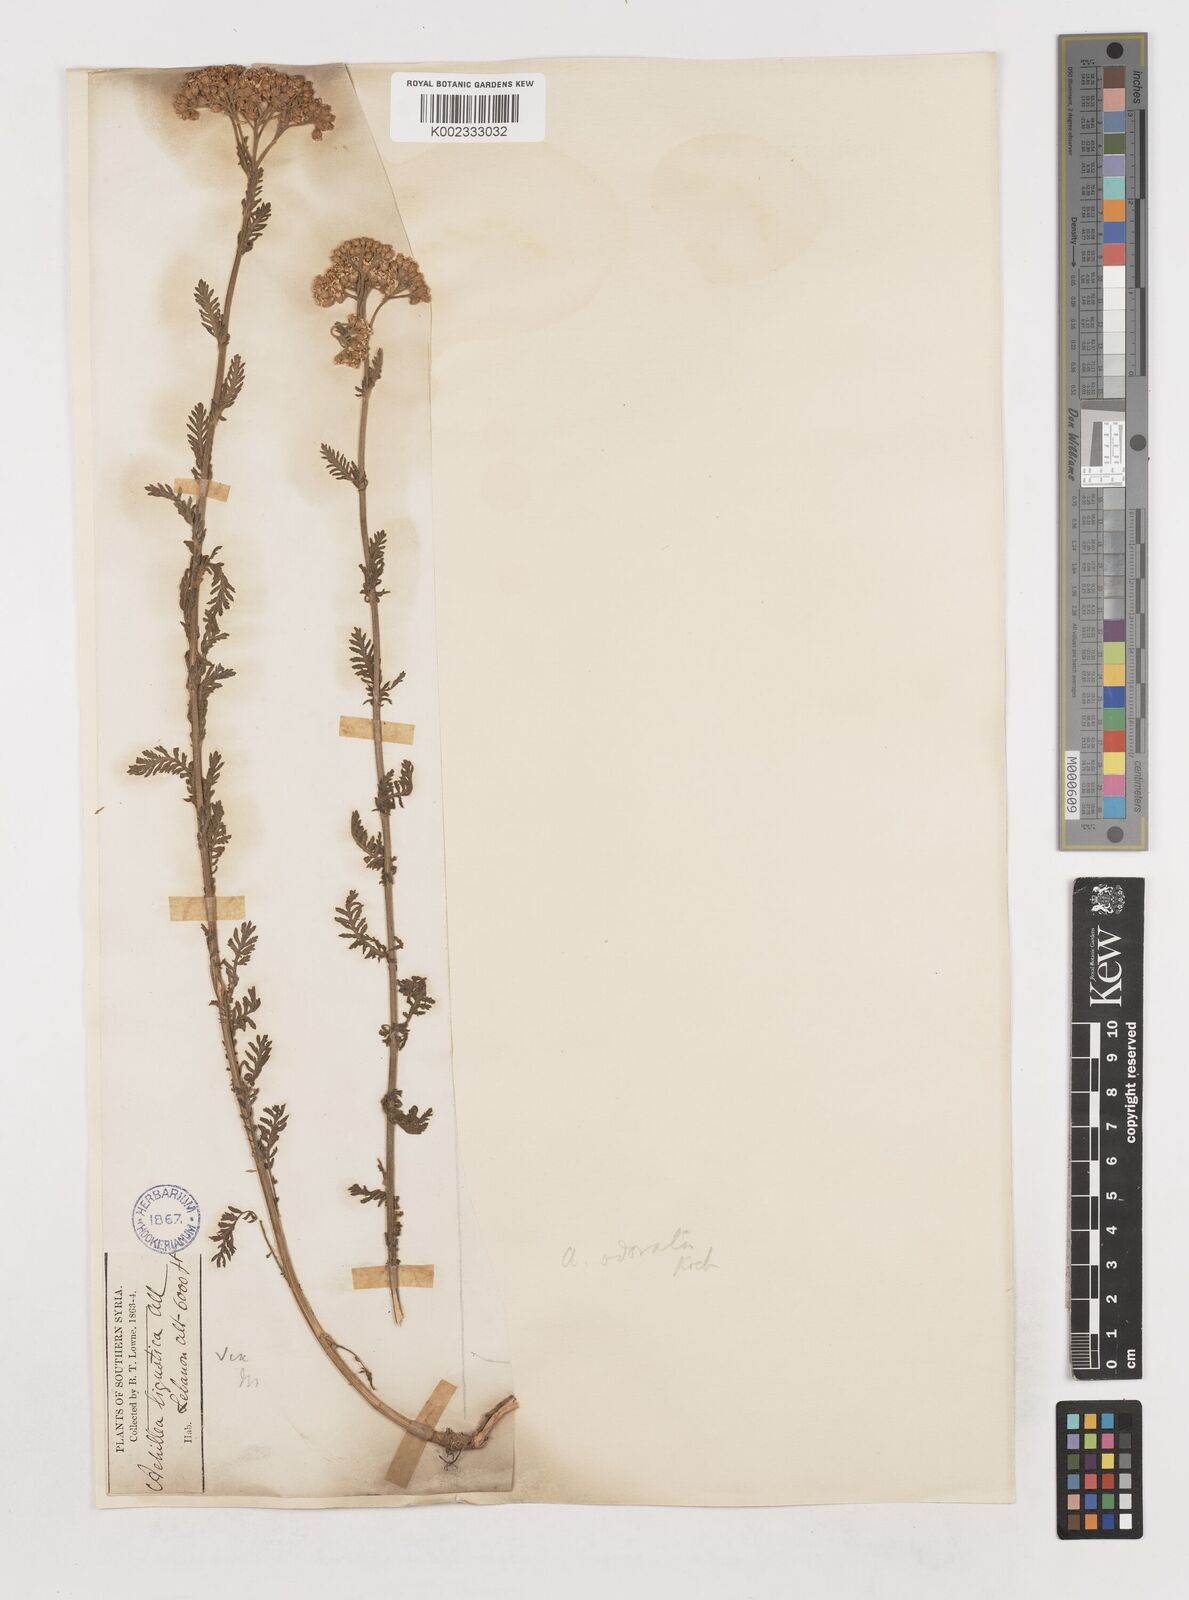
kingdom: Plantae
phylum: Tracheophyta
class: Magnoliopsida
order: Asterales
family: Asteraceae
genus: Achillea
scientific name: Achillea
